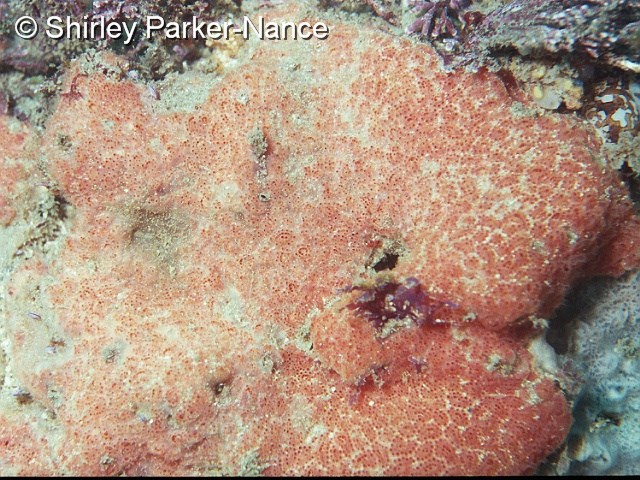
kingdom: Animalia
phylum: Chordata
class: Ascidiacea
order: Aplousobranchia
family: Polyclinidae
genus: Aplidium
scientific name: Aplidium
